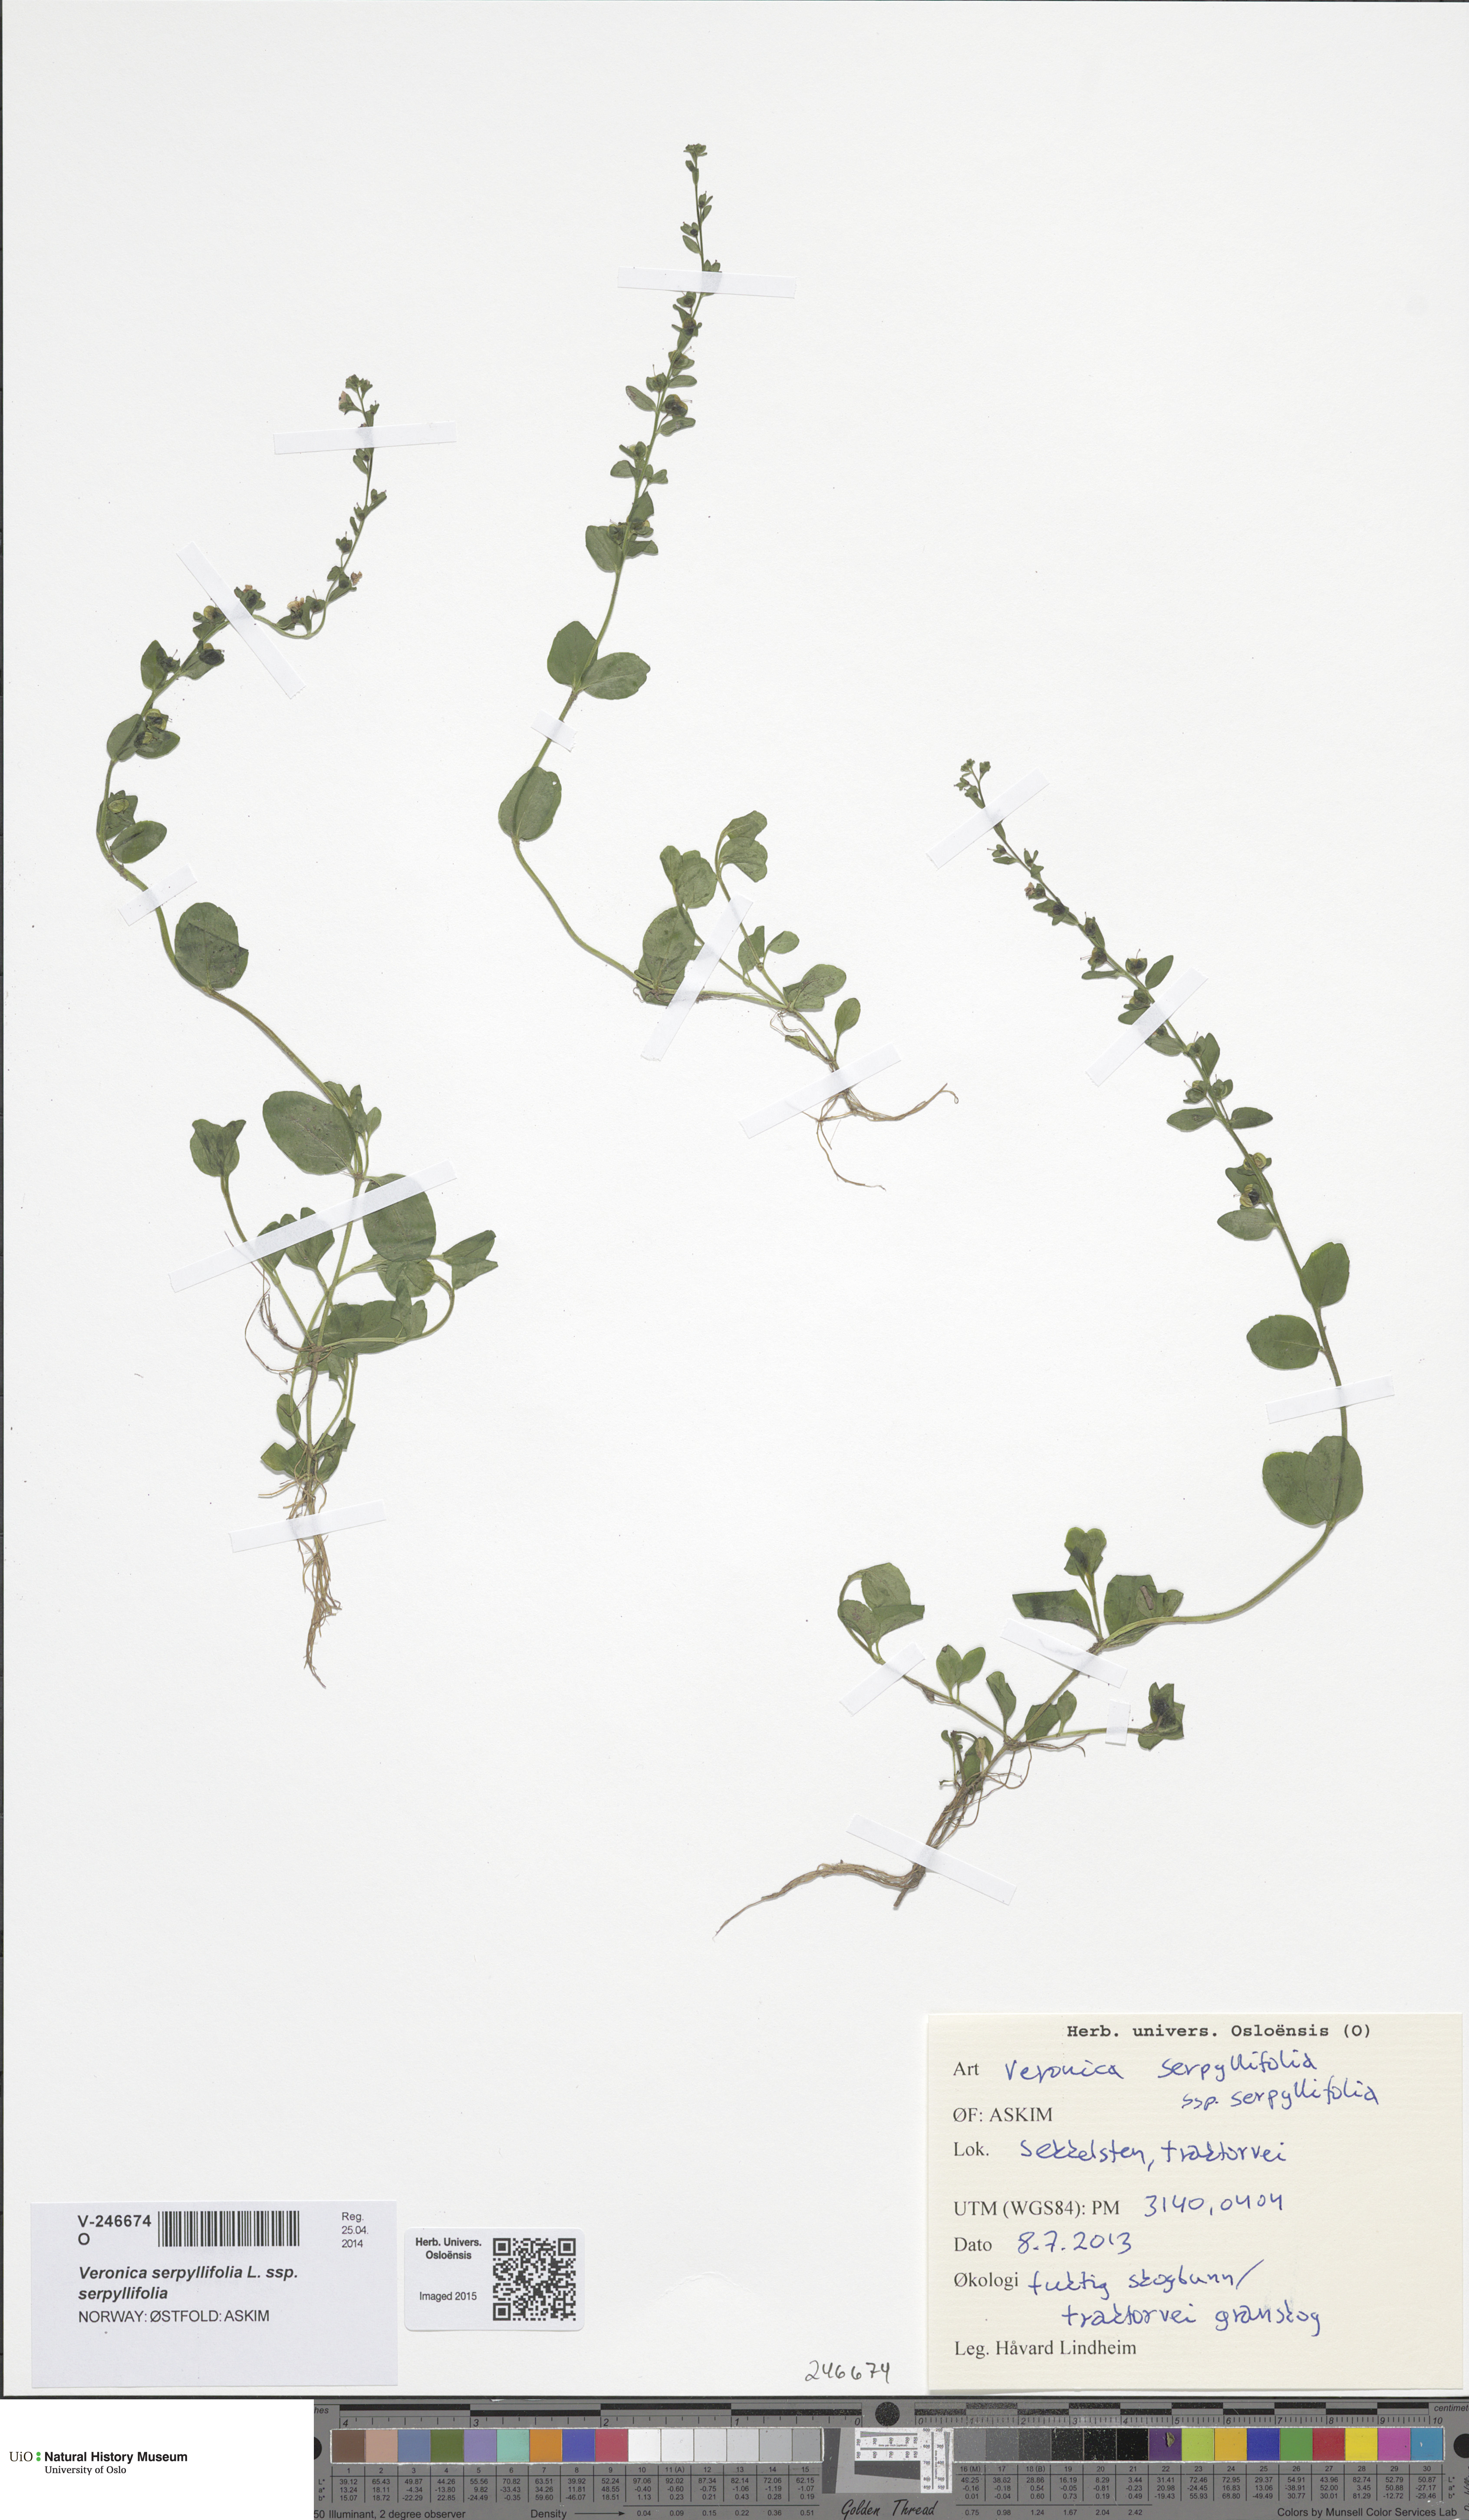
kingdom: Plantae
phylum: Tracheophyta
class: Magnoliopsida
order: Lamiales
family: Plantaginaceae
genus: Veronica
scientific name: Veronica serpyllifolia
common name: Thyme-leaved speedwell
